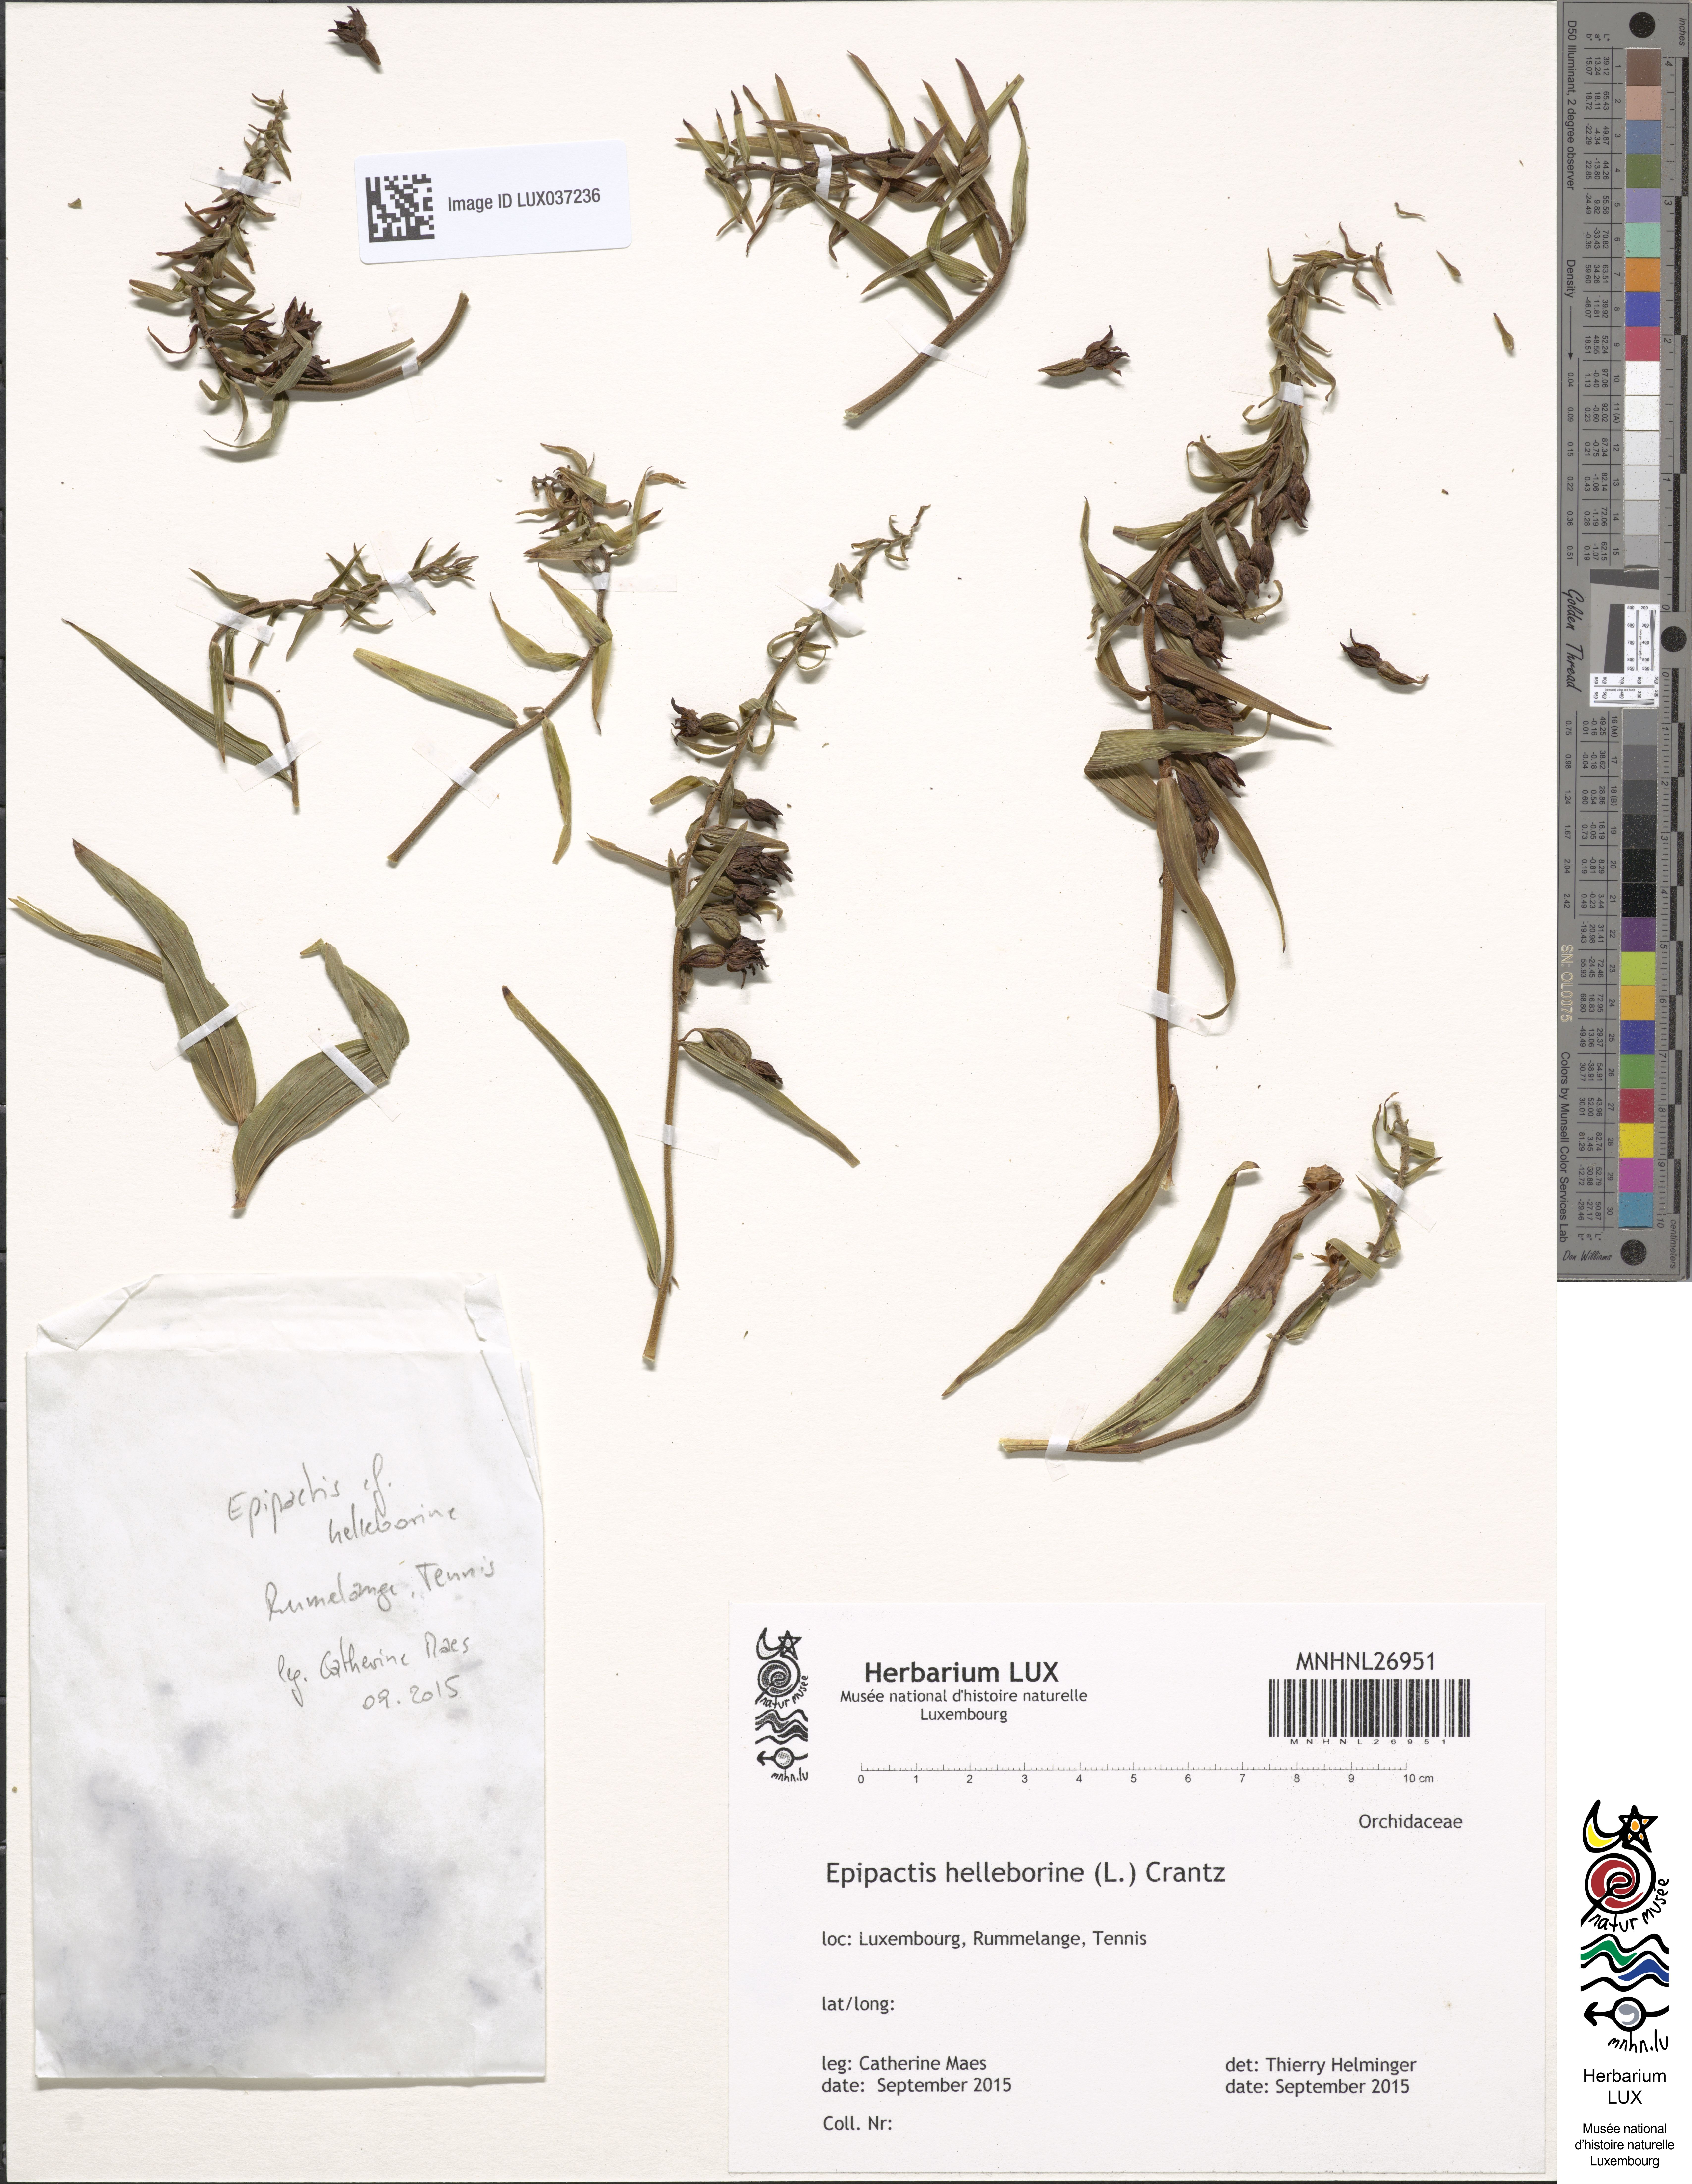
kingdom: Plantae
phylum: Tracheophyta
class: Liliopsida
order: Asparagales
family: Orchidaceae
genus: Epipactis
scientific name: Epipactis helleborine
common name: Broad-leaved helleborine
